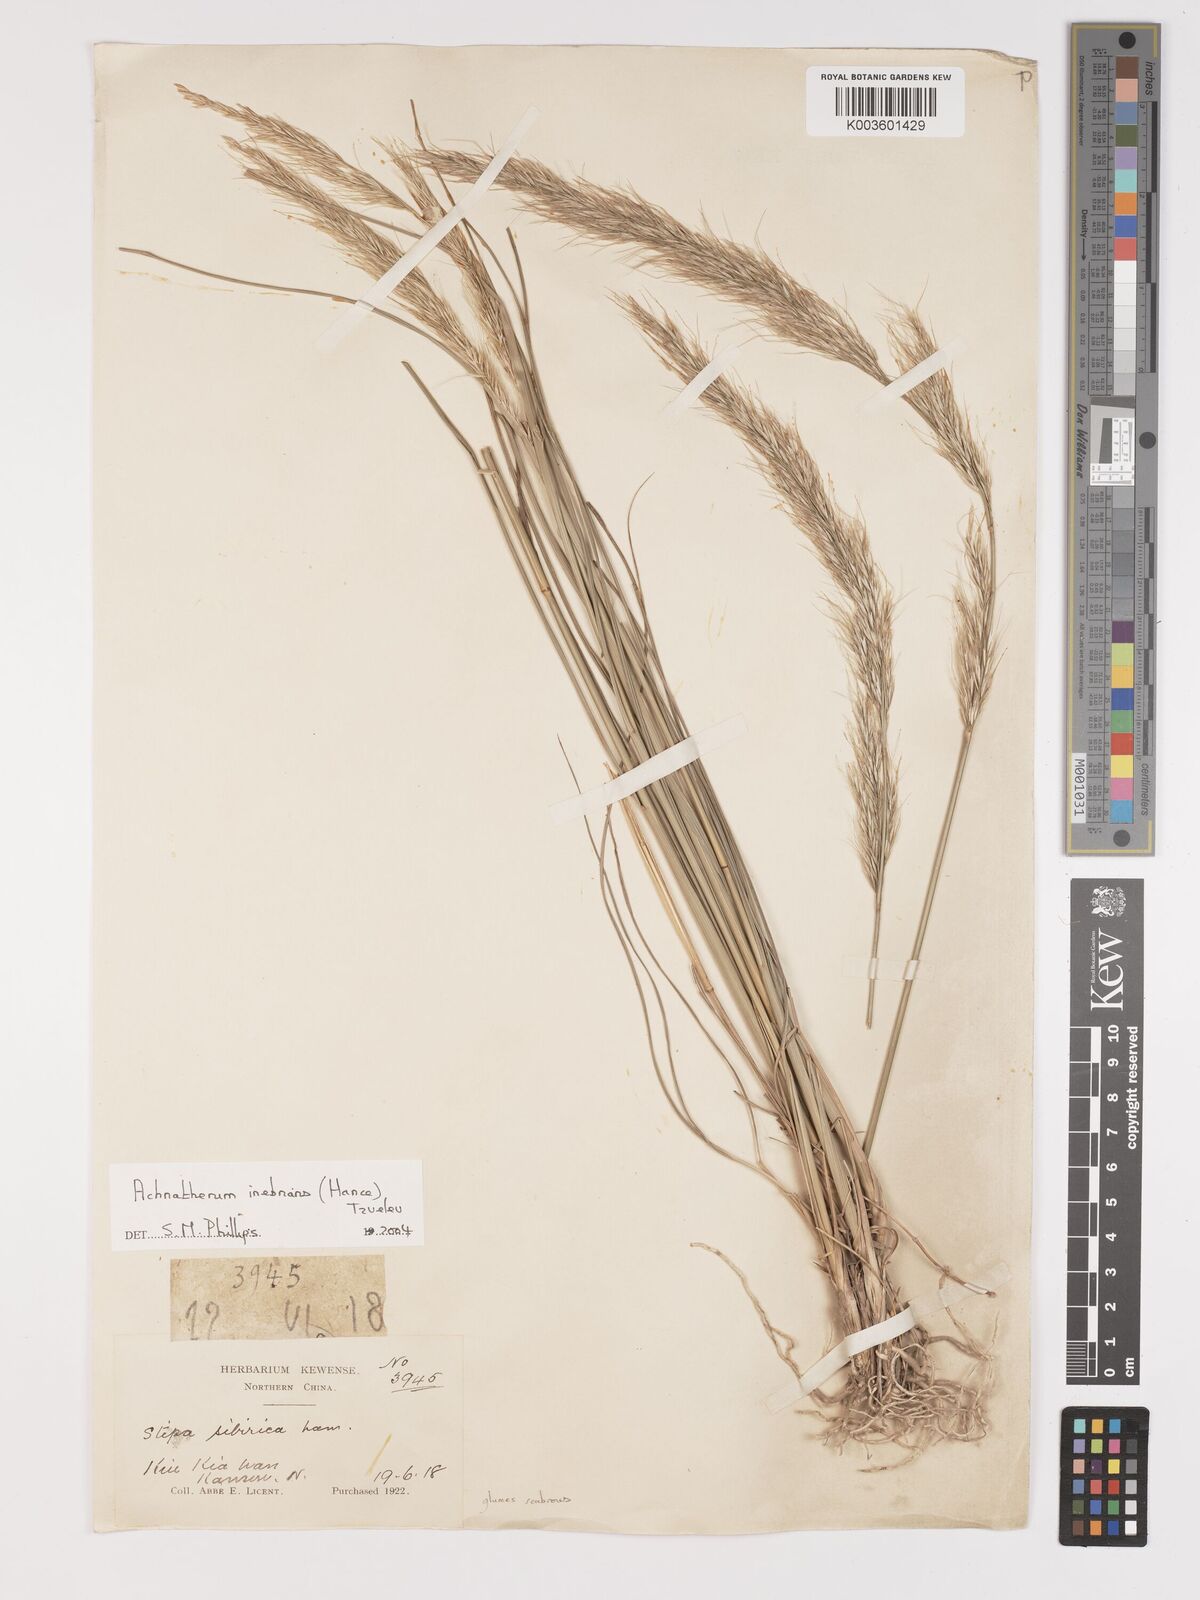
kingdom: Plantae
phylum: Tracheophyta
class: Liliopsida
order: Poales
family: Poaceae
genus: Achnatherum
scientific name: Achnatherum inebrians
